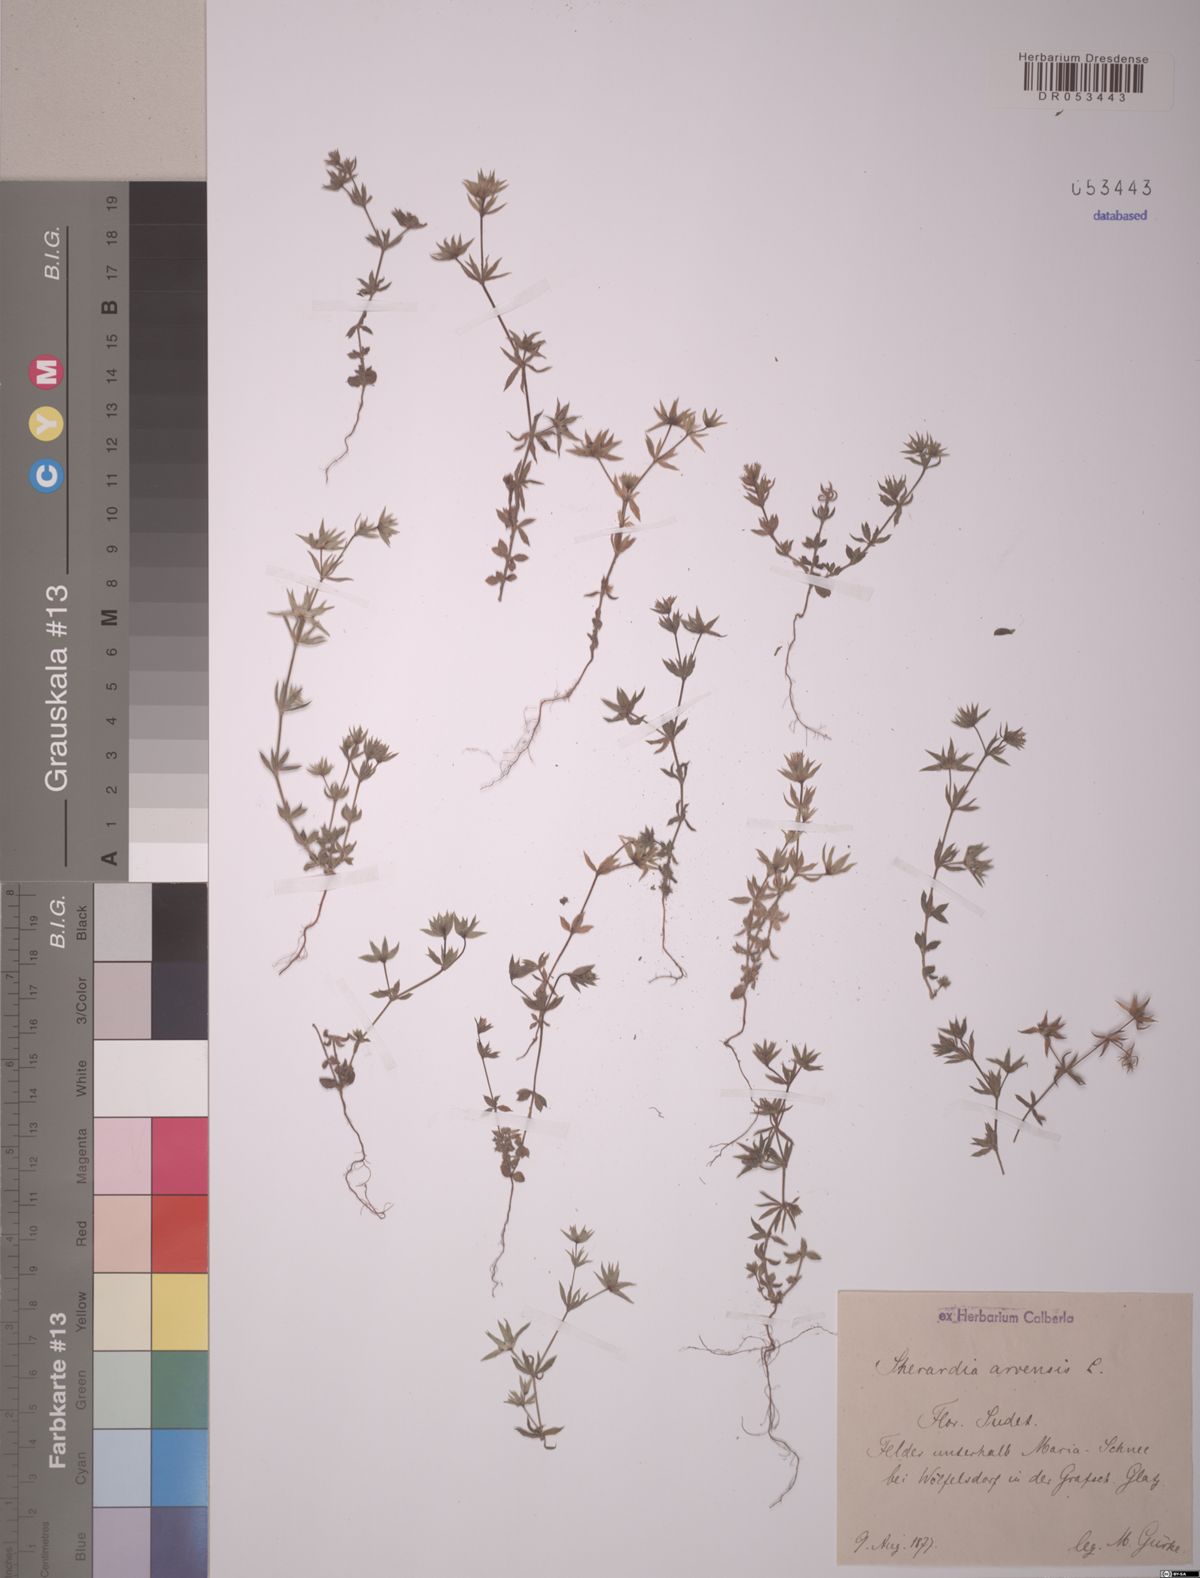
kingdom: Plantae
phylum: Tracheophyta
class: Magnoliopsida
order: Gentianales
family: Rubiaceae
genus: Sherardia
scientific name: Sherardia arvensis
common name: Field madder
